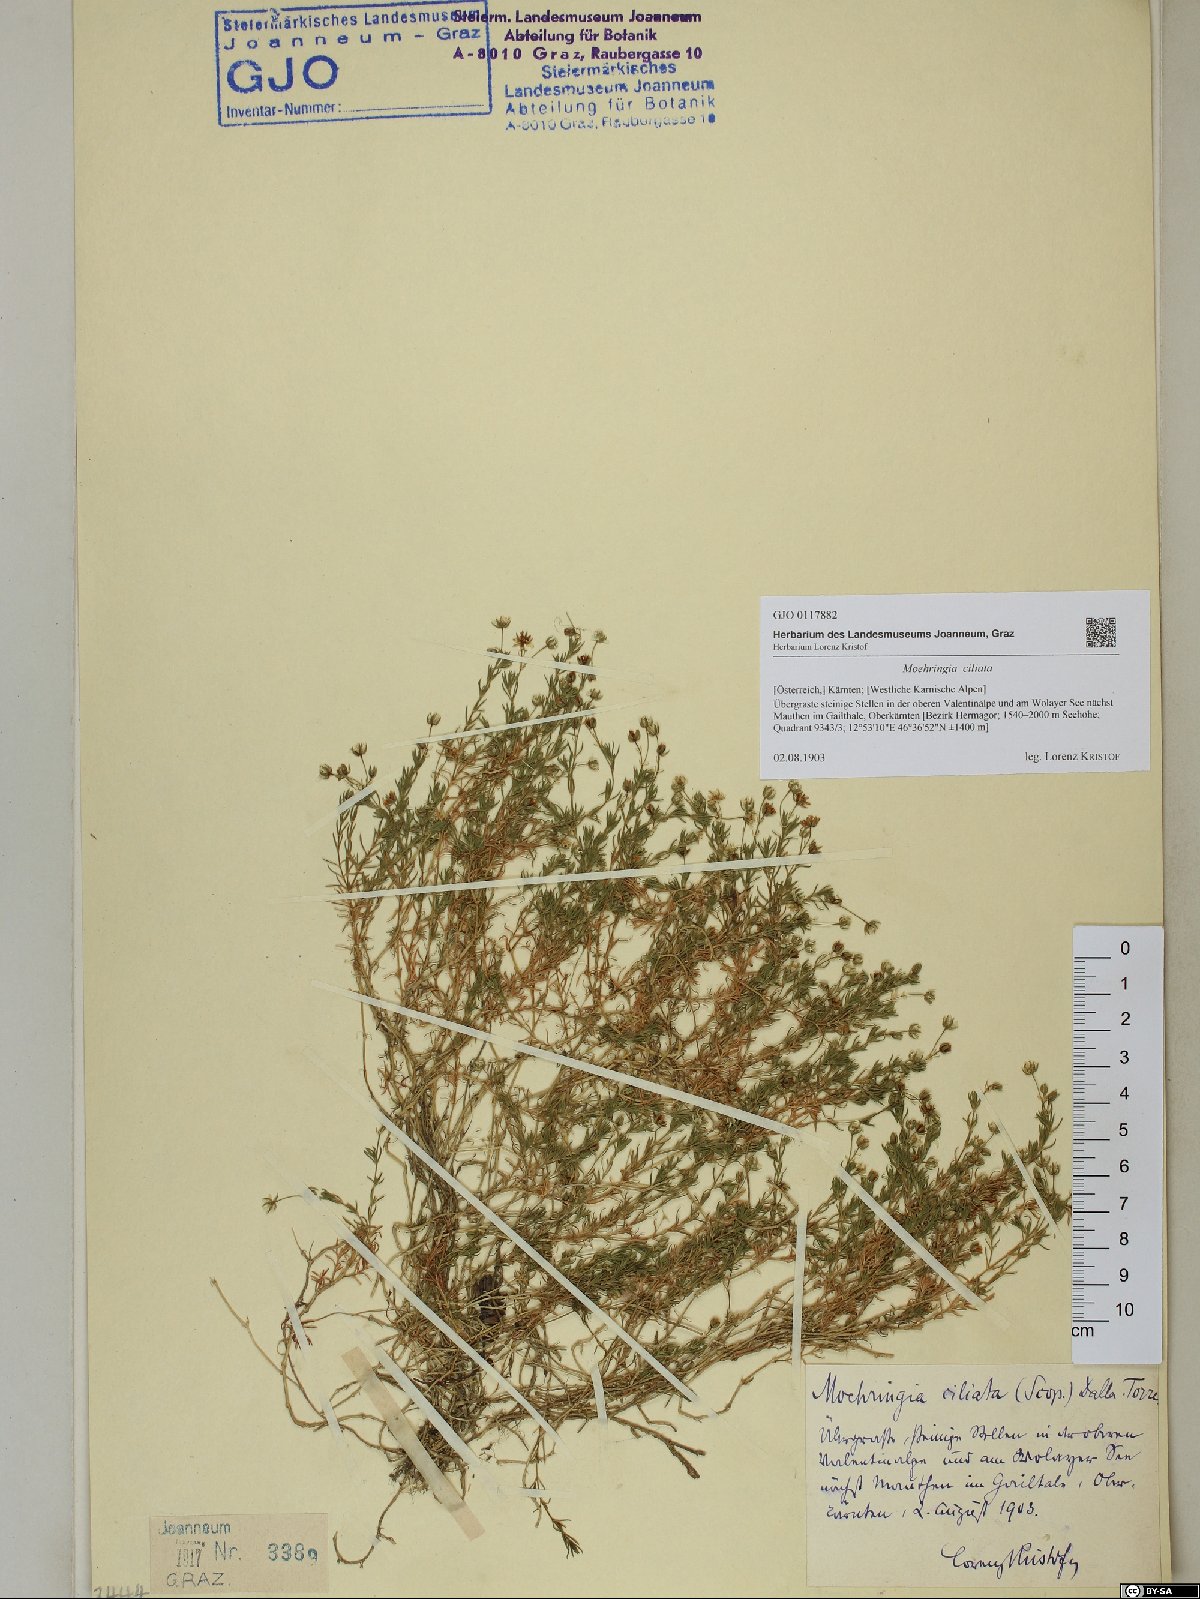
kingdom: Plantae
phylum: Tracheophyta
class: Magnoliopsida
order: Caryophyllales
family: Caryophyllaceae
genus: Moehringia
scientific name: Moehringia ciliata
